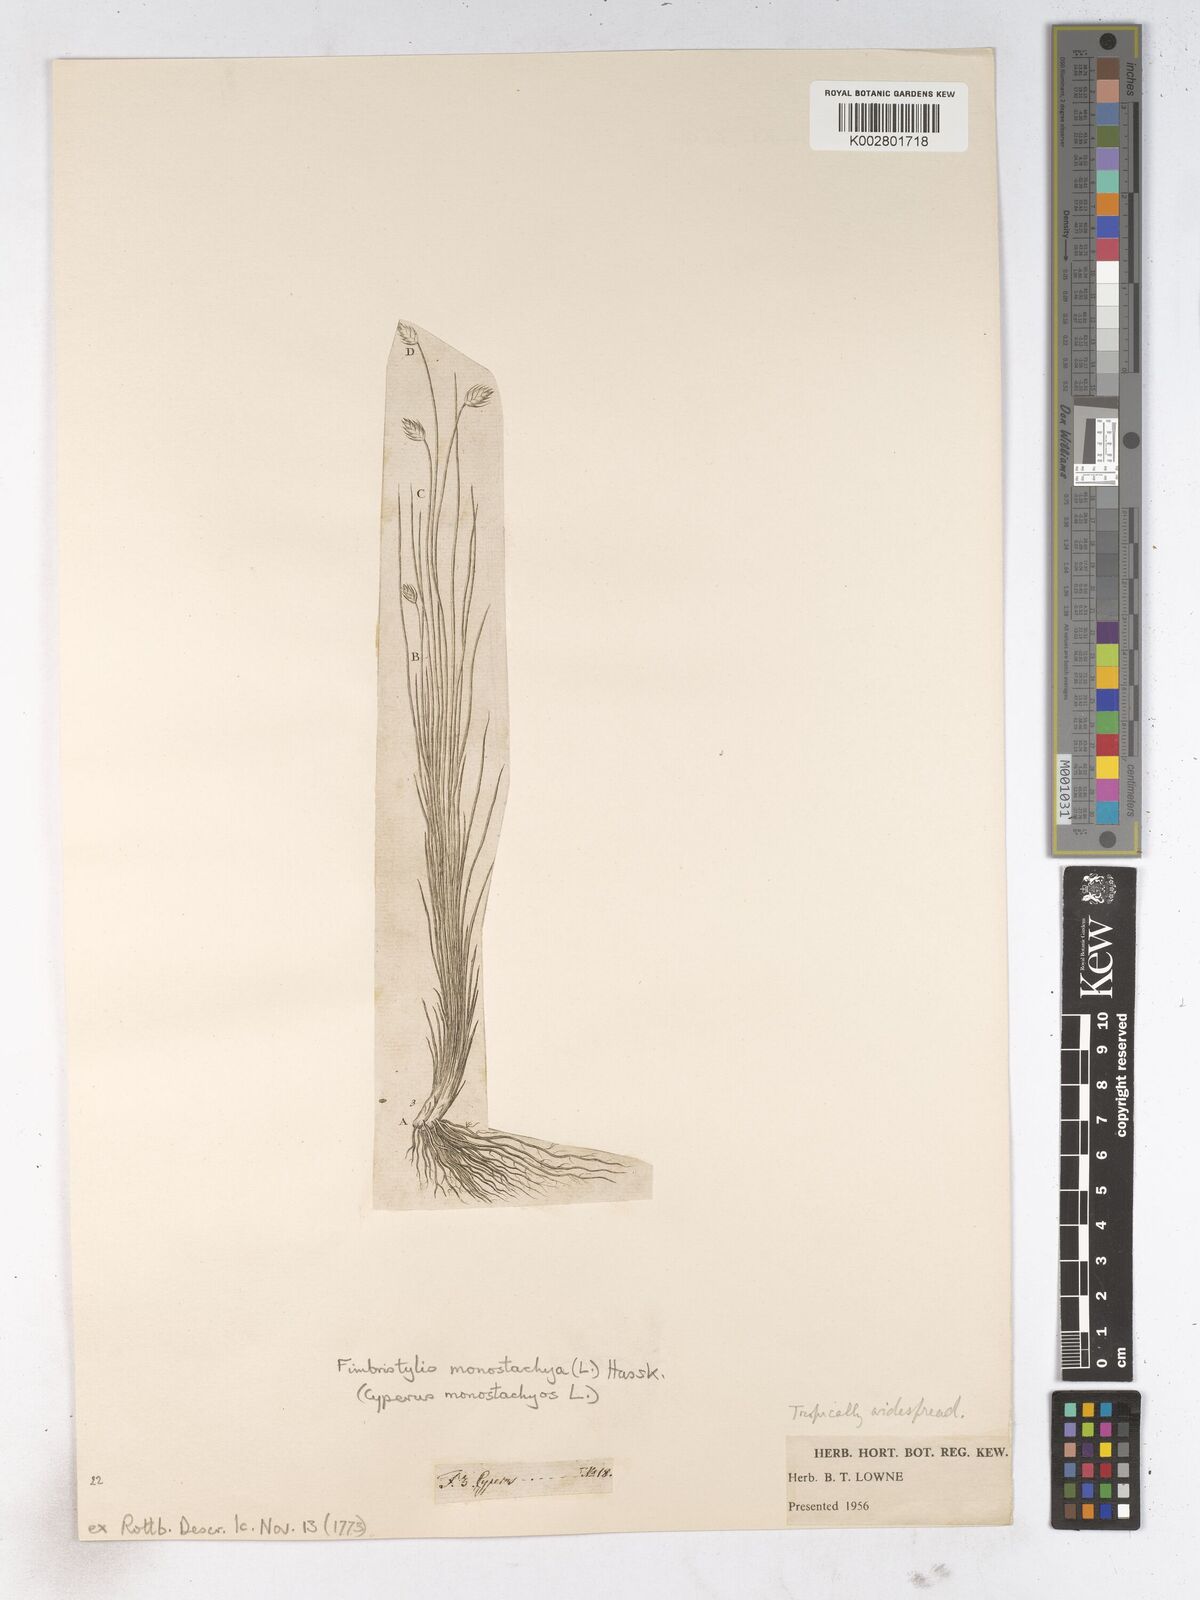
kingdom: Plantae
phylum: Tracheophyta
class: Liliopsida
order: Poales
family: Cyperaceae
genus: Abildgaardia
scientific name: Abildgaardia ovata
